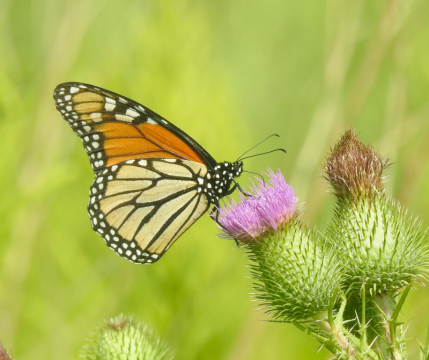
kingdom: Animalia
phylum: Arthropoda
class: Insecta
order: Lepidoptera
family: Nymphalidae
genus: Danaus
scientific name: Danaus plexippus
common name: Monarch
